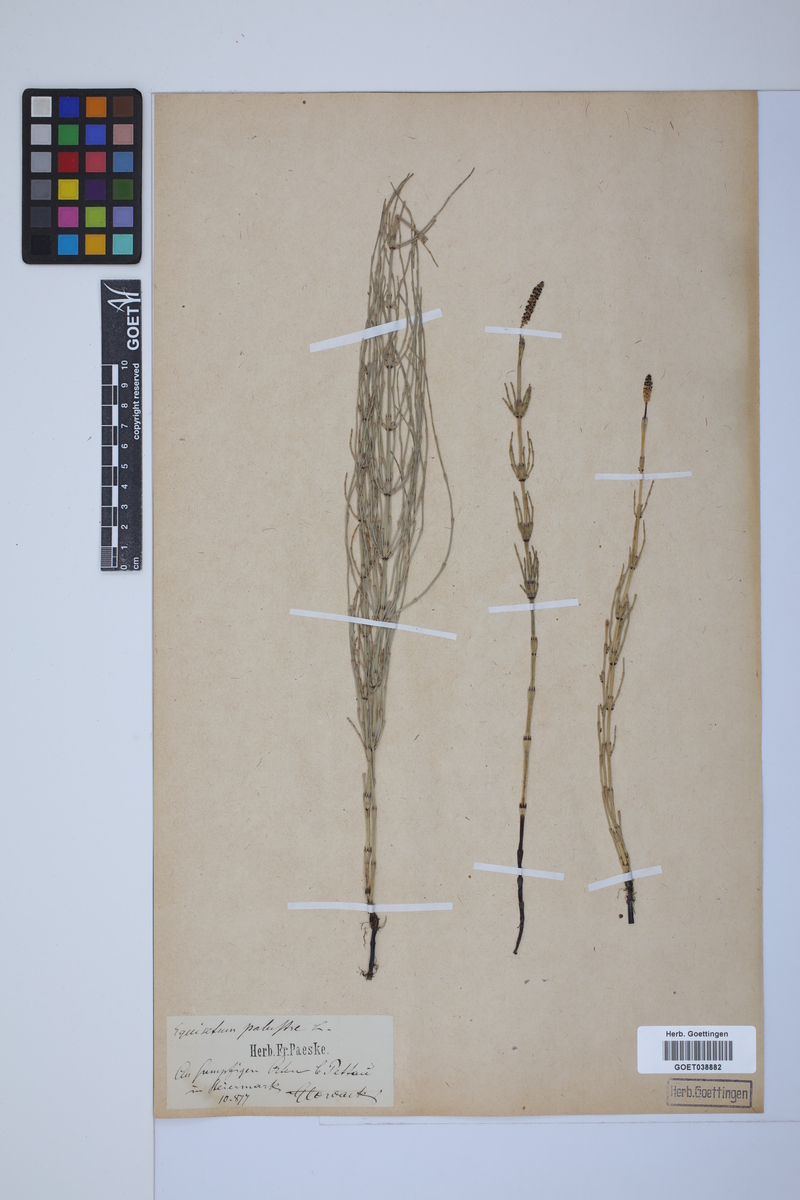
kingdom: Plantae
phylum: Tracheophyta
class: Polypodiopsida
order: Equisetales
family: Equisetaceae
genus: Equisetum
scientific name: Equisetum palustre
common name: Marsh horsetail
